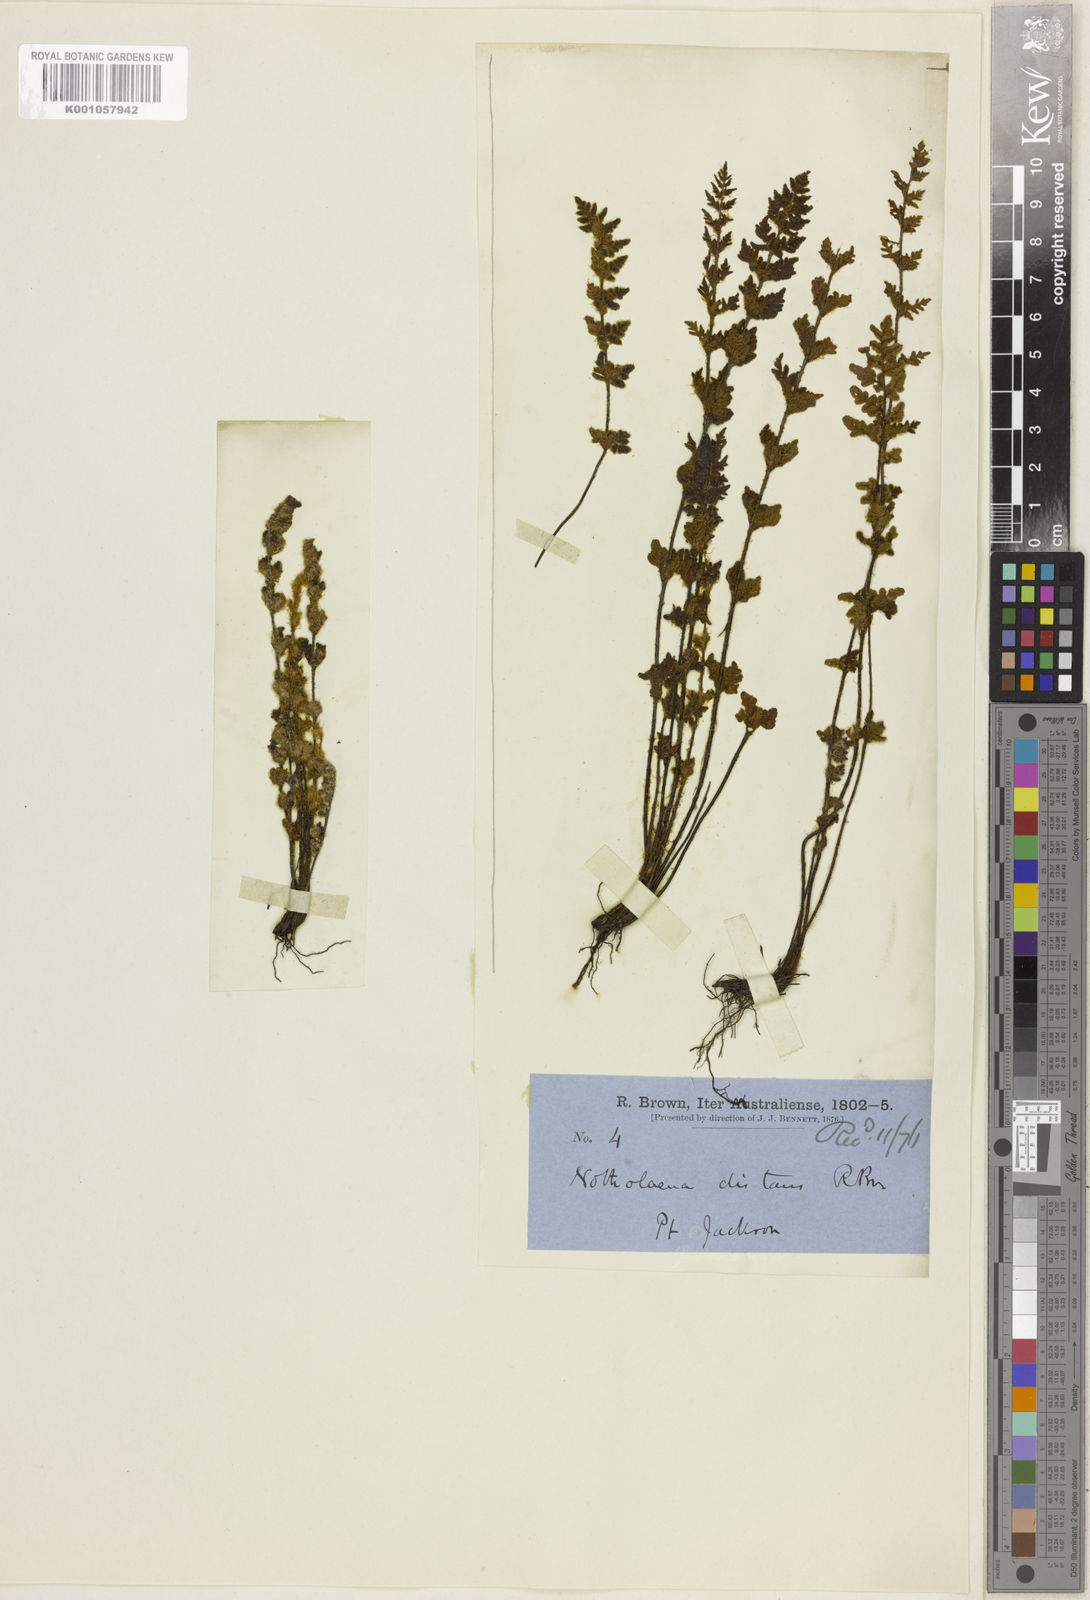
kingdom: Plantae
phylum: Tracheophyta
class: Polypodiopsida
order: Polypodiales
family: Pteridaceae
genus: Cheilanthes
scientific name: Cheilanthes distans
